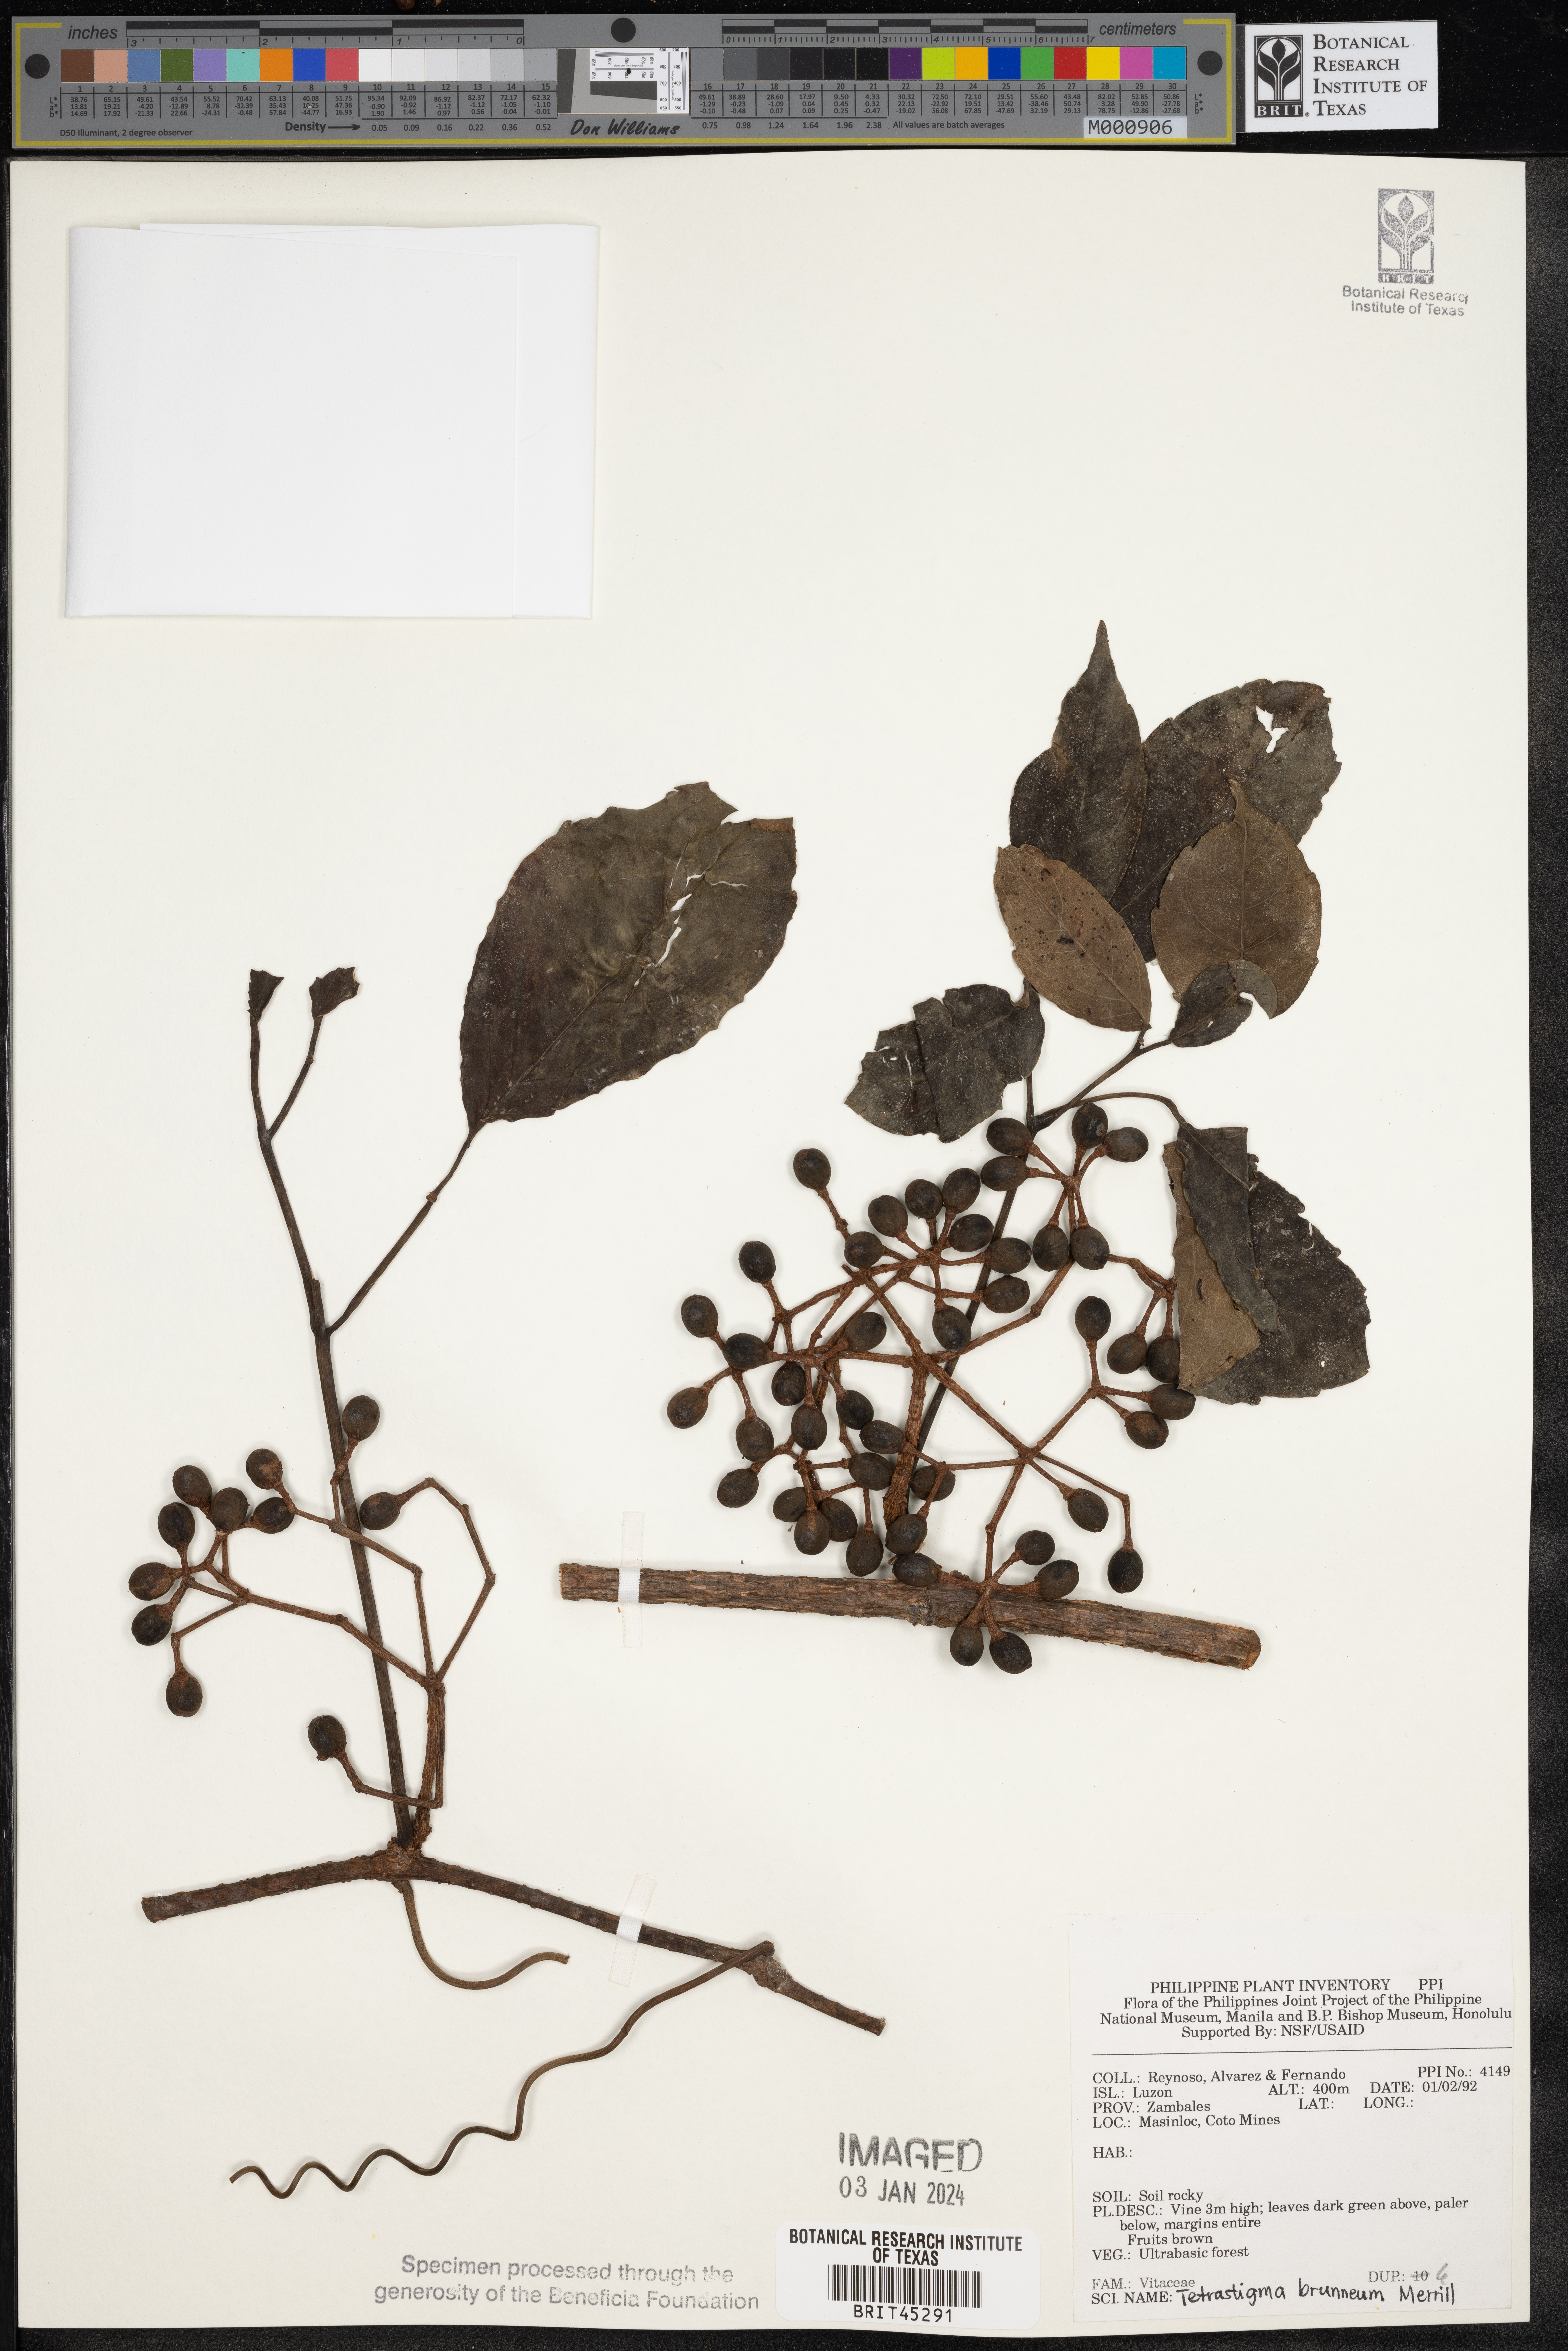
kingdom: Plantae
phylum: Tracheophyta
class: Magnoliopsida
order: Vitales
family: Vitaceae
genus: Tetrastigma
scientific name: Tetrastigma brunneum
